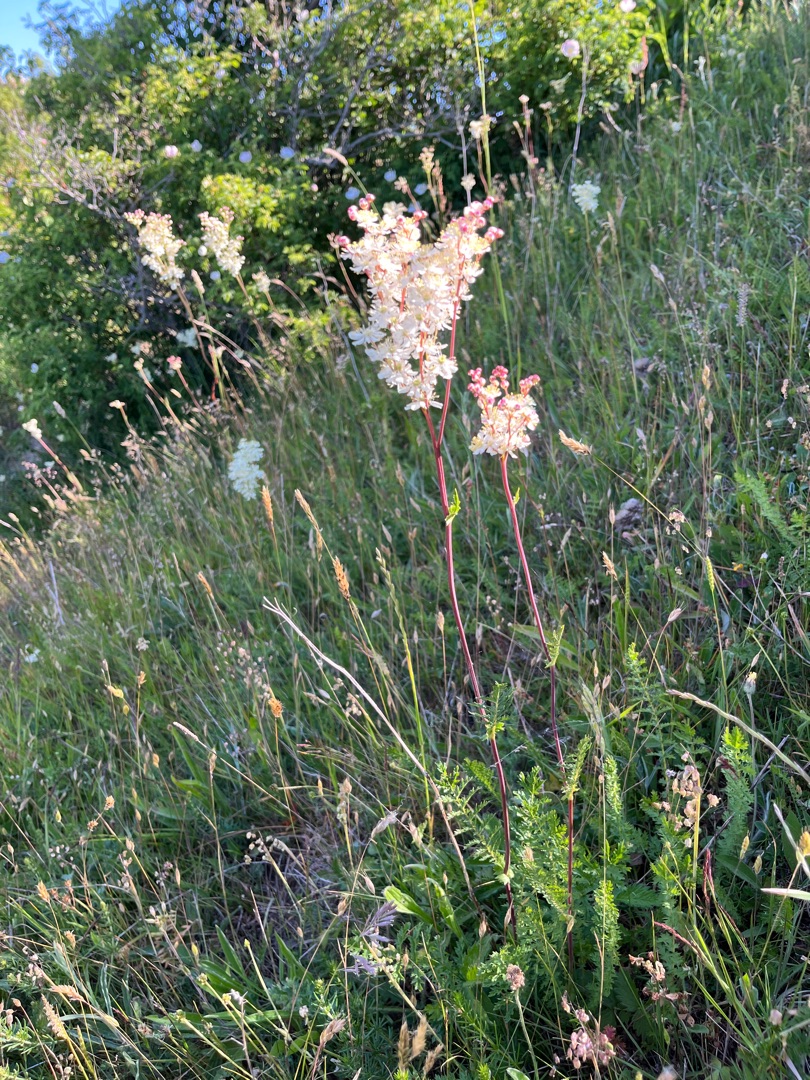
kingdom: Plantae
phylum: Tracheophyta
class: Magnoliopsida
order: Rosales
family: Rosaceae
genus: Filipendula
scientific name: Filipendula vulgaris
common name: Knoldet mjødurt
